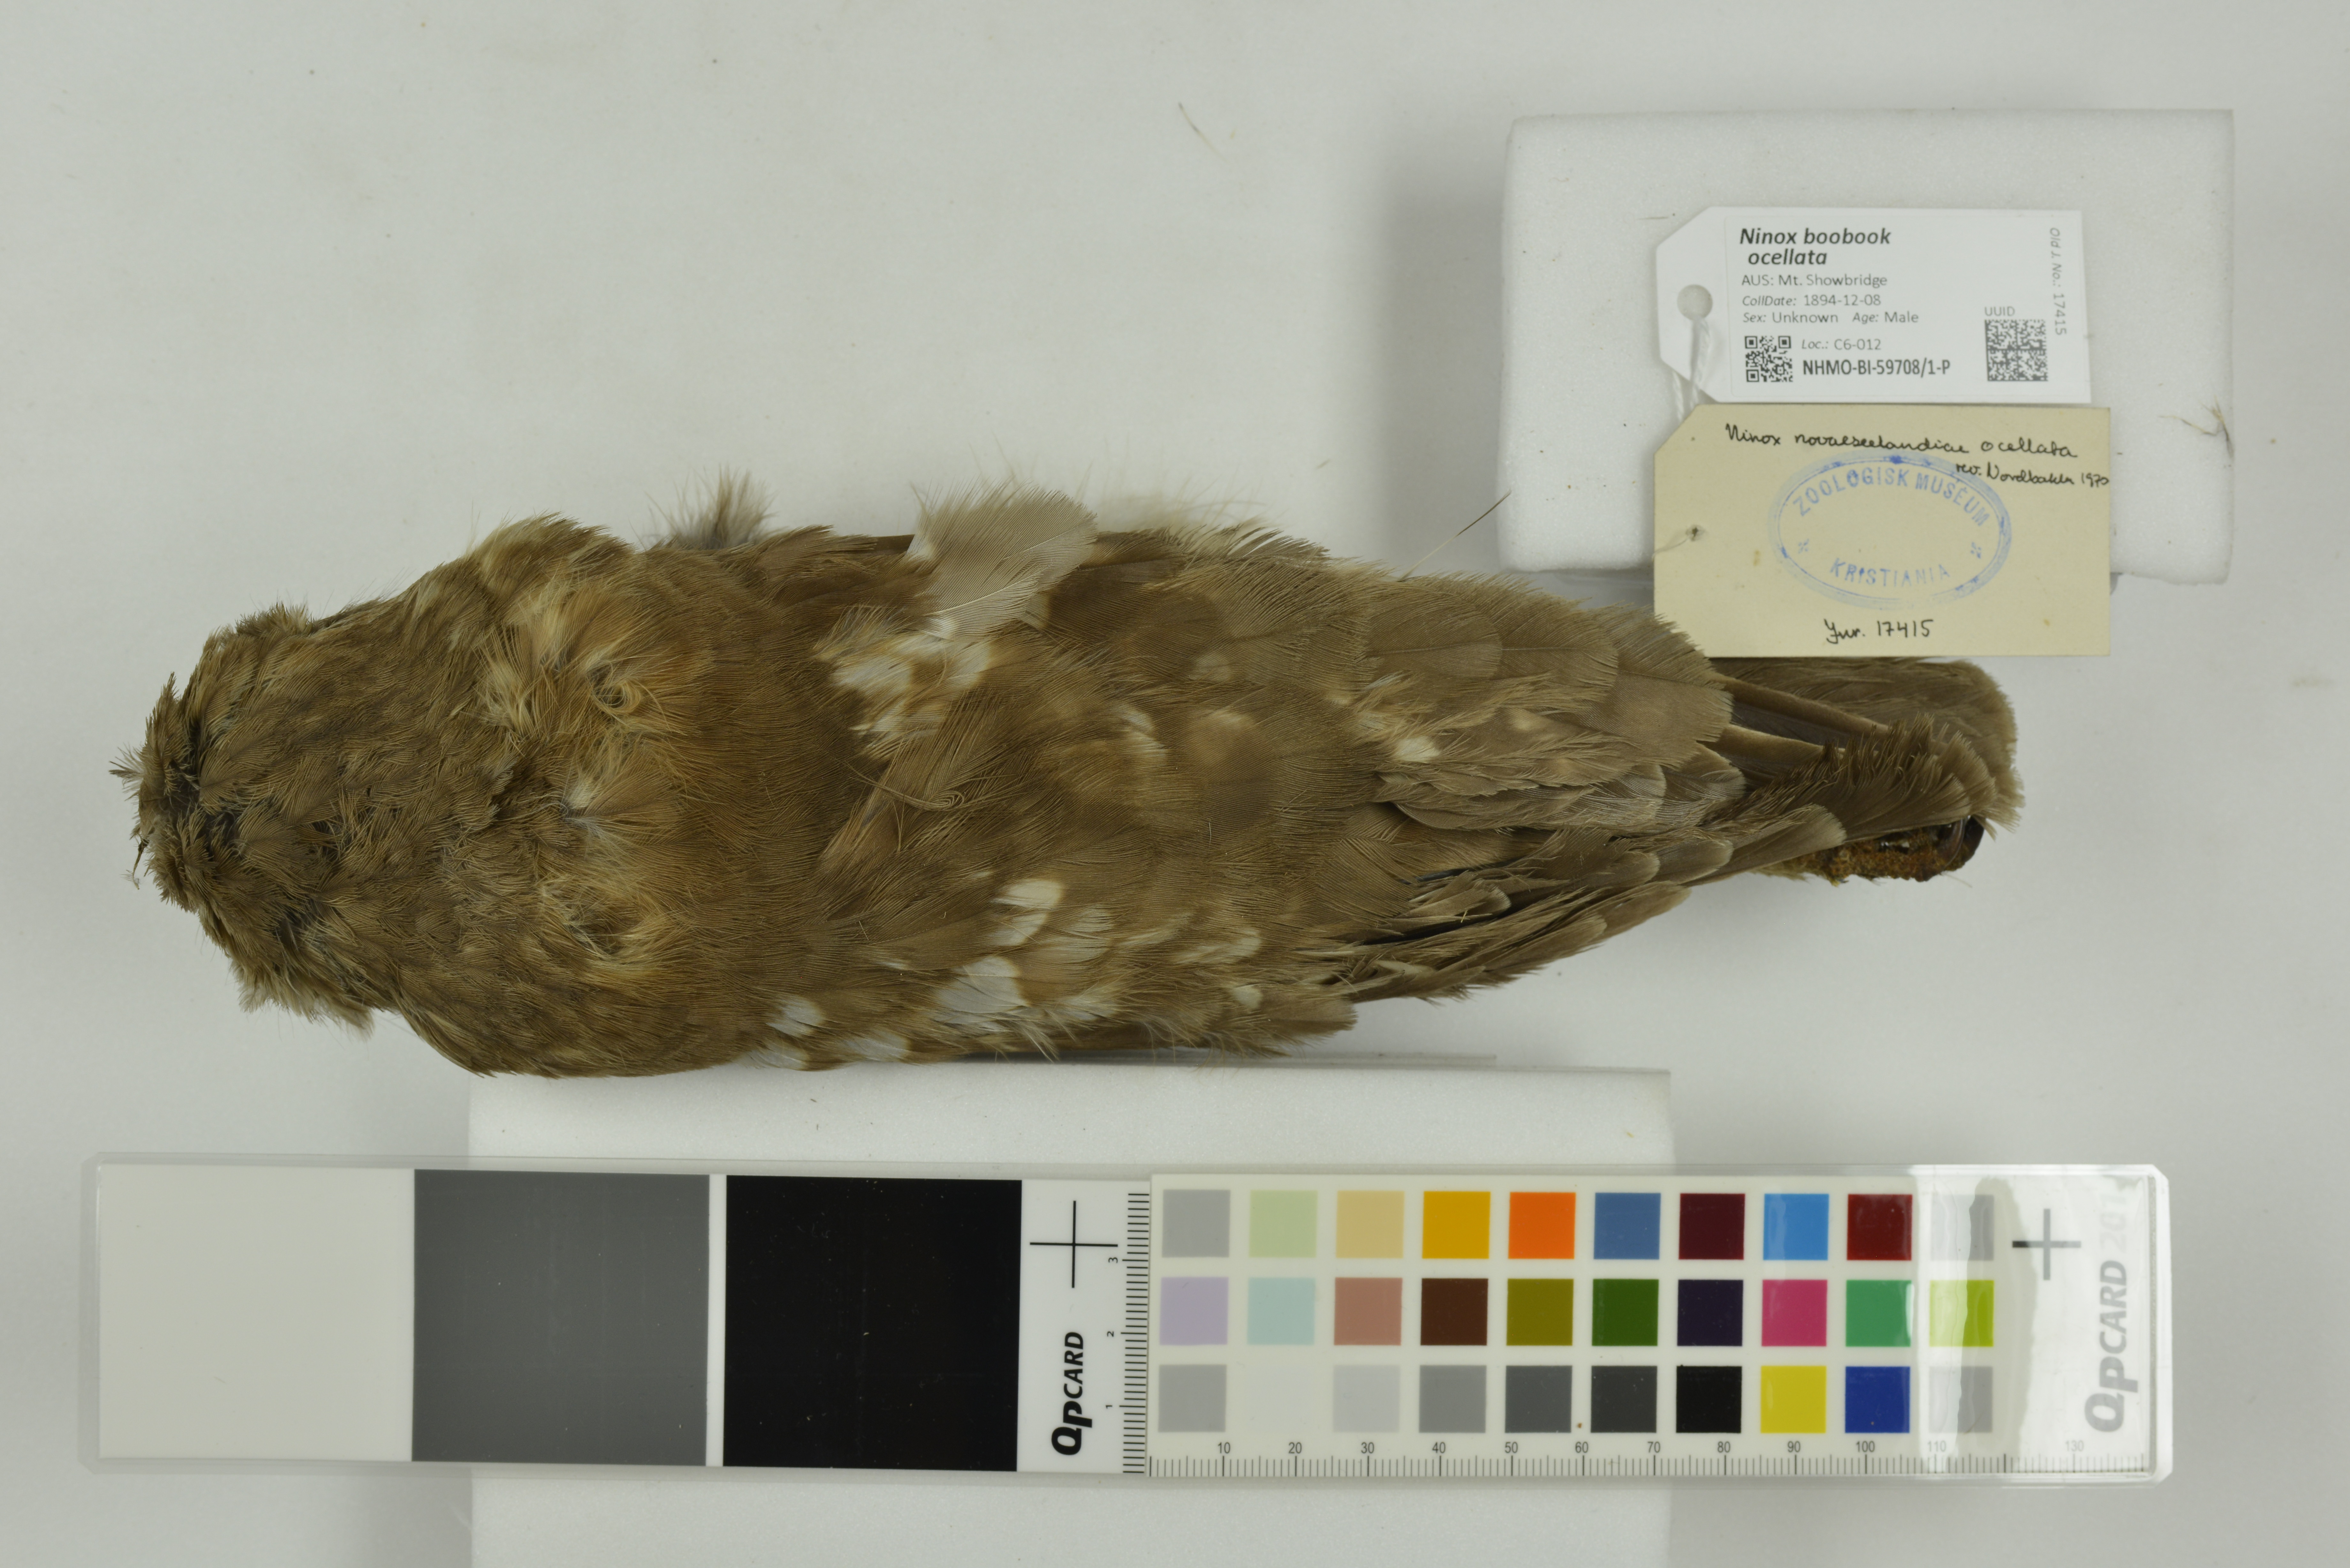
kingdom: Animalia
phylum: Chordata
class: Aves
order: Strigiformes
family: Strigidae
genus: Ninox
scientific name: Ninox boobook
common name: Southern boobook
